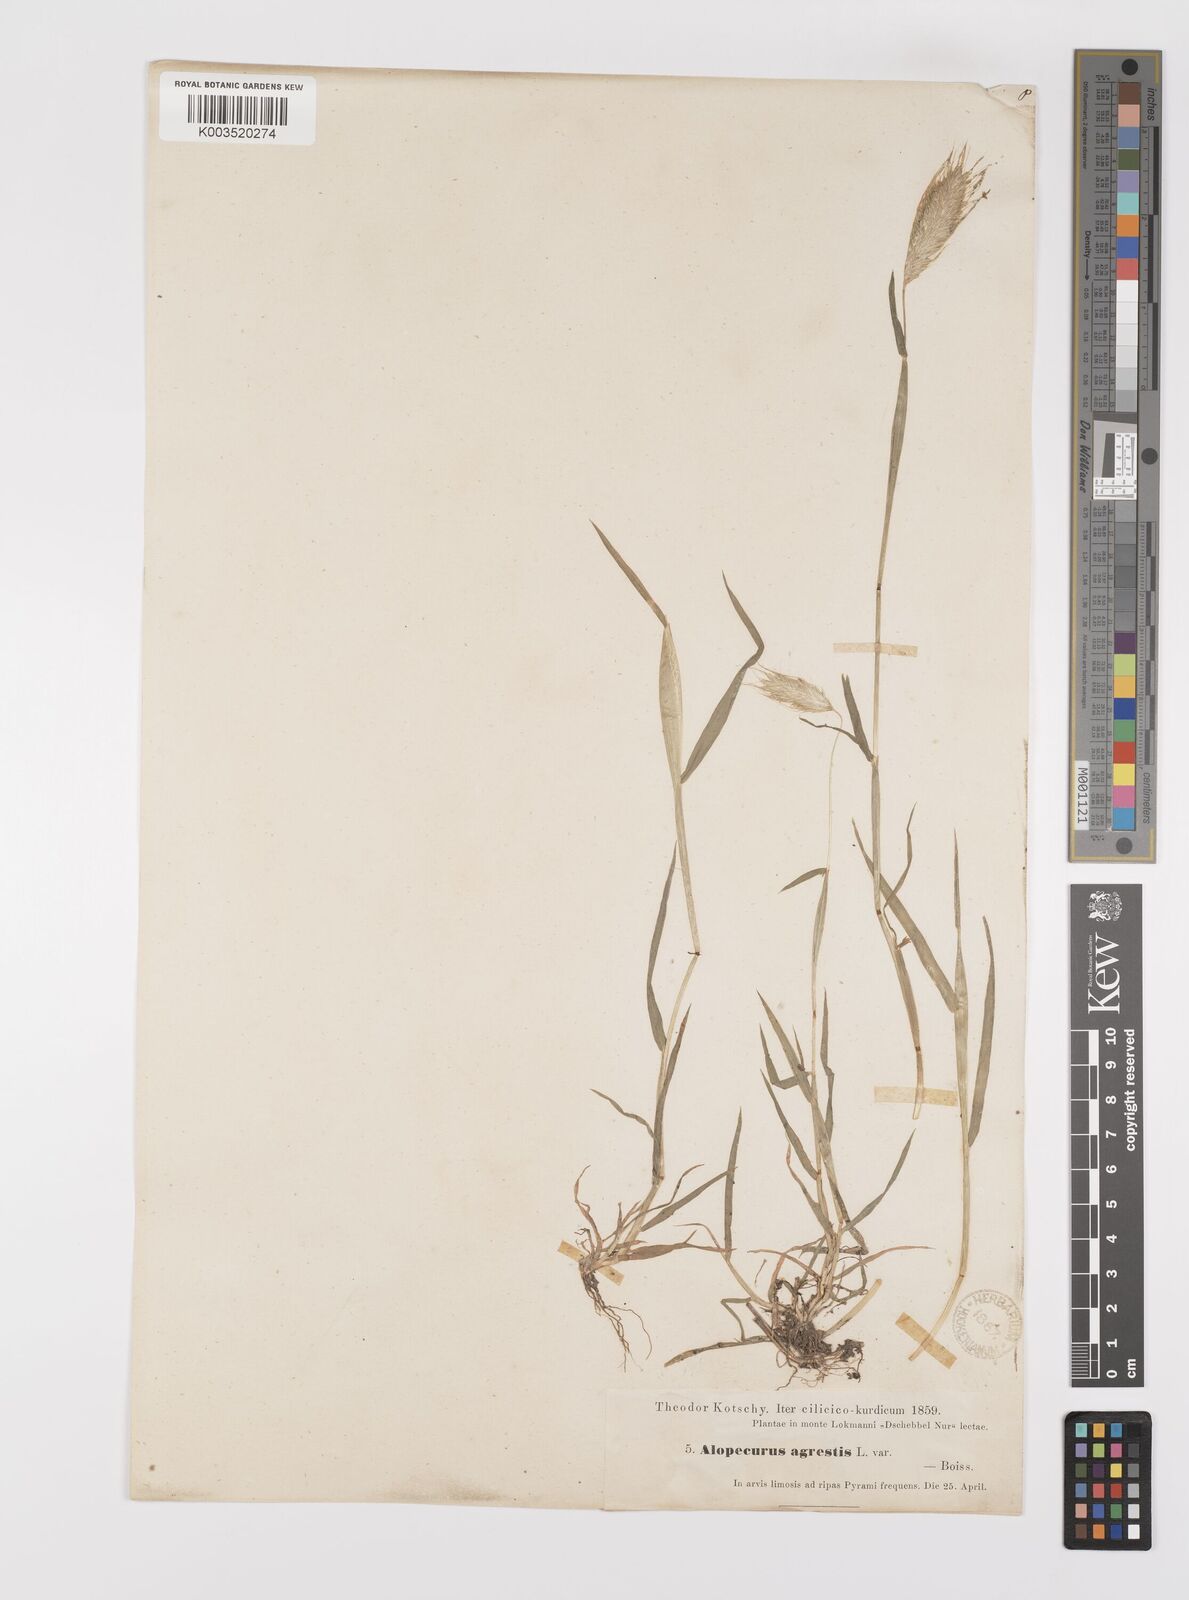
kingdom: Plantae
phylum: Tracheophyta
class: Liliopsida
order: Poales
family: Poaceae
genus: Alopecurus
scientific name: Alopecurus utriculatus
